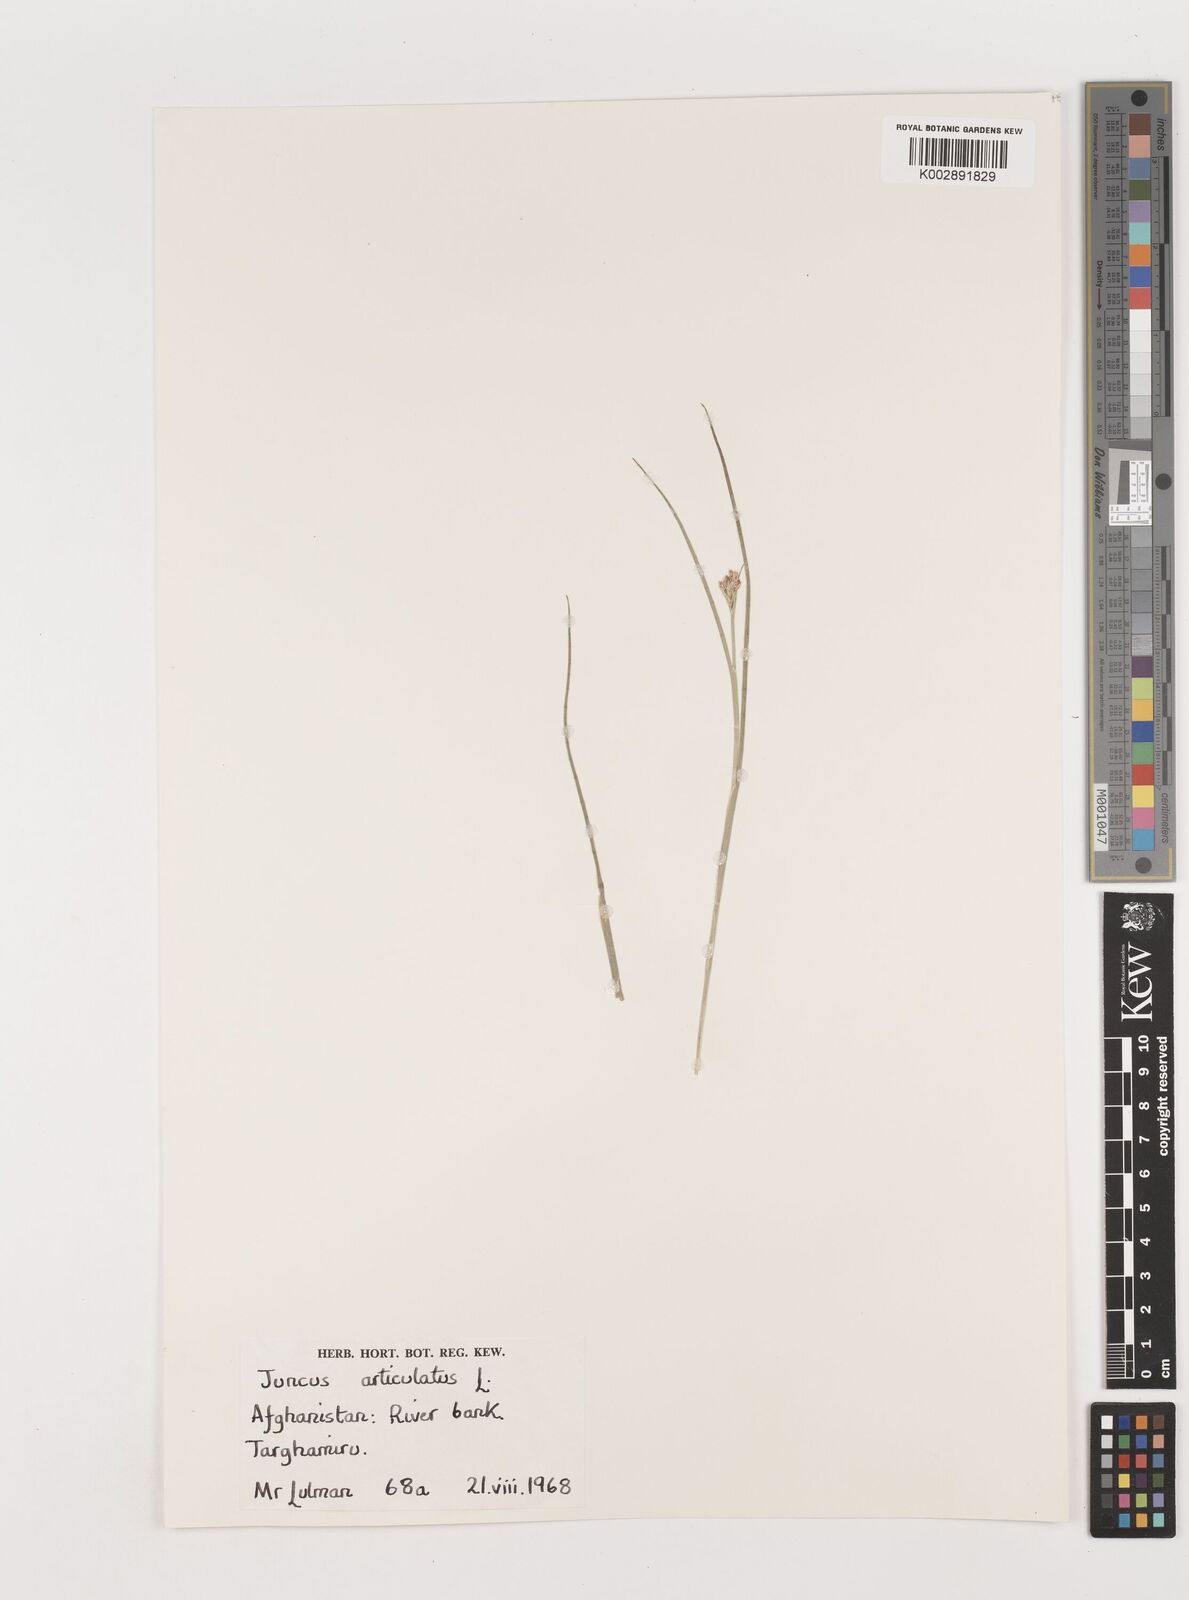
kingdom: Plantae
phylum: Tracheophyta
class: Liliopsida
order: Poales
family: Juncaceae
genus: Juncus
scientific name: Juncus articulatus
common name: Jointed rush
